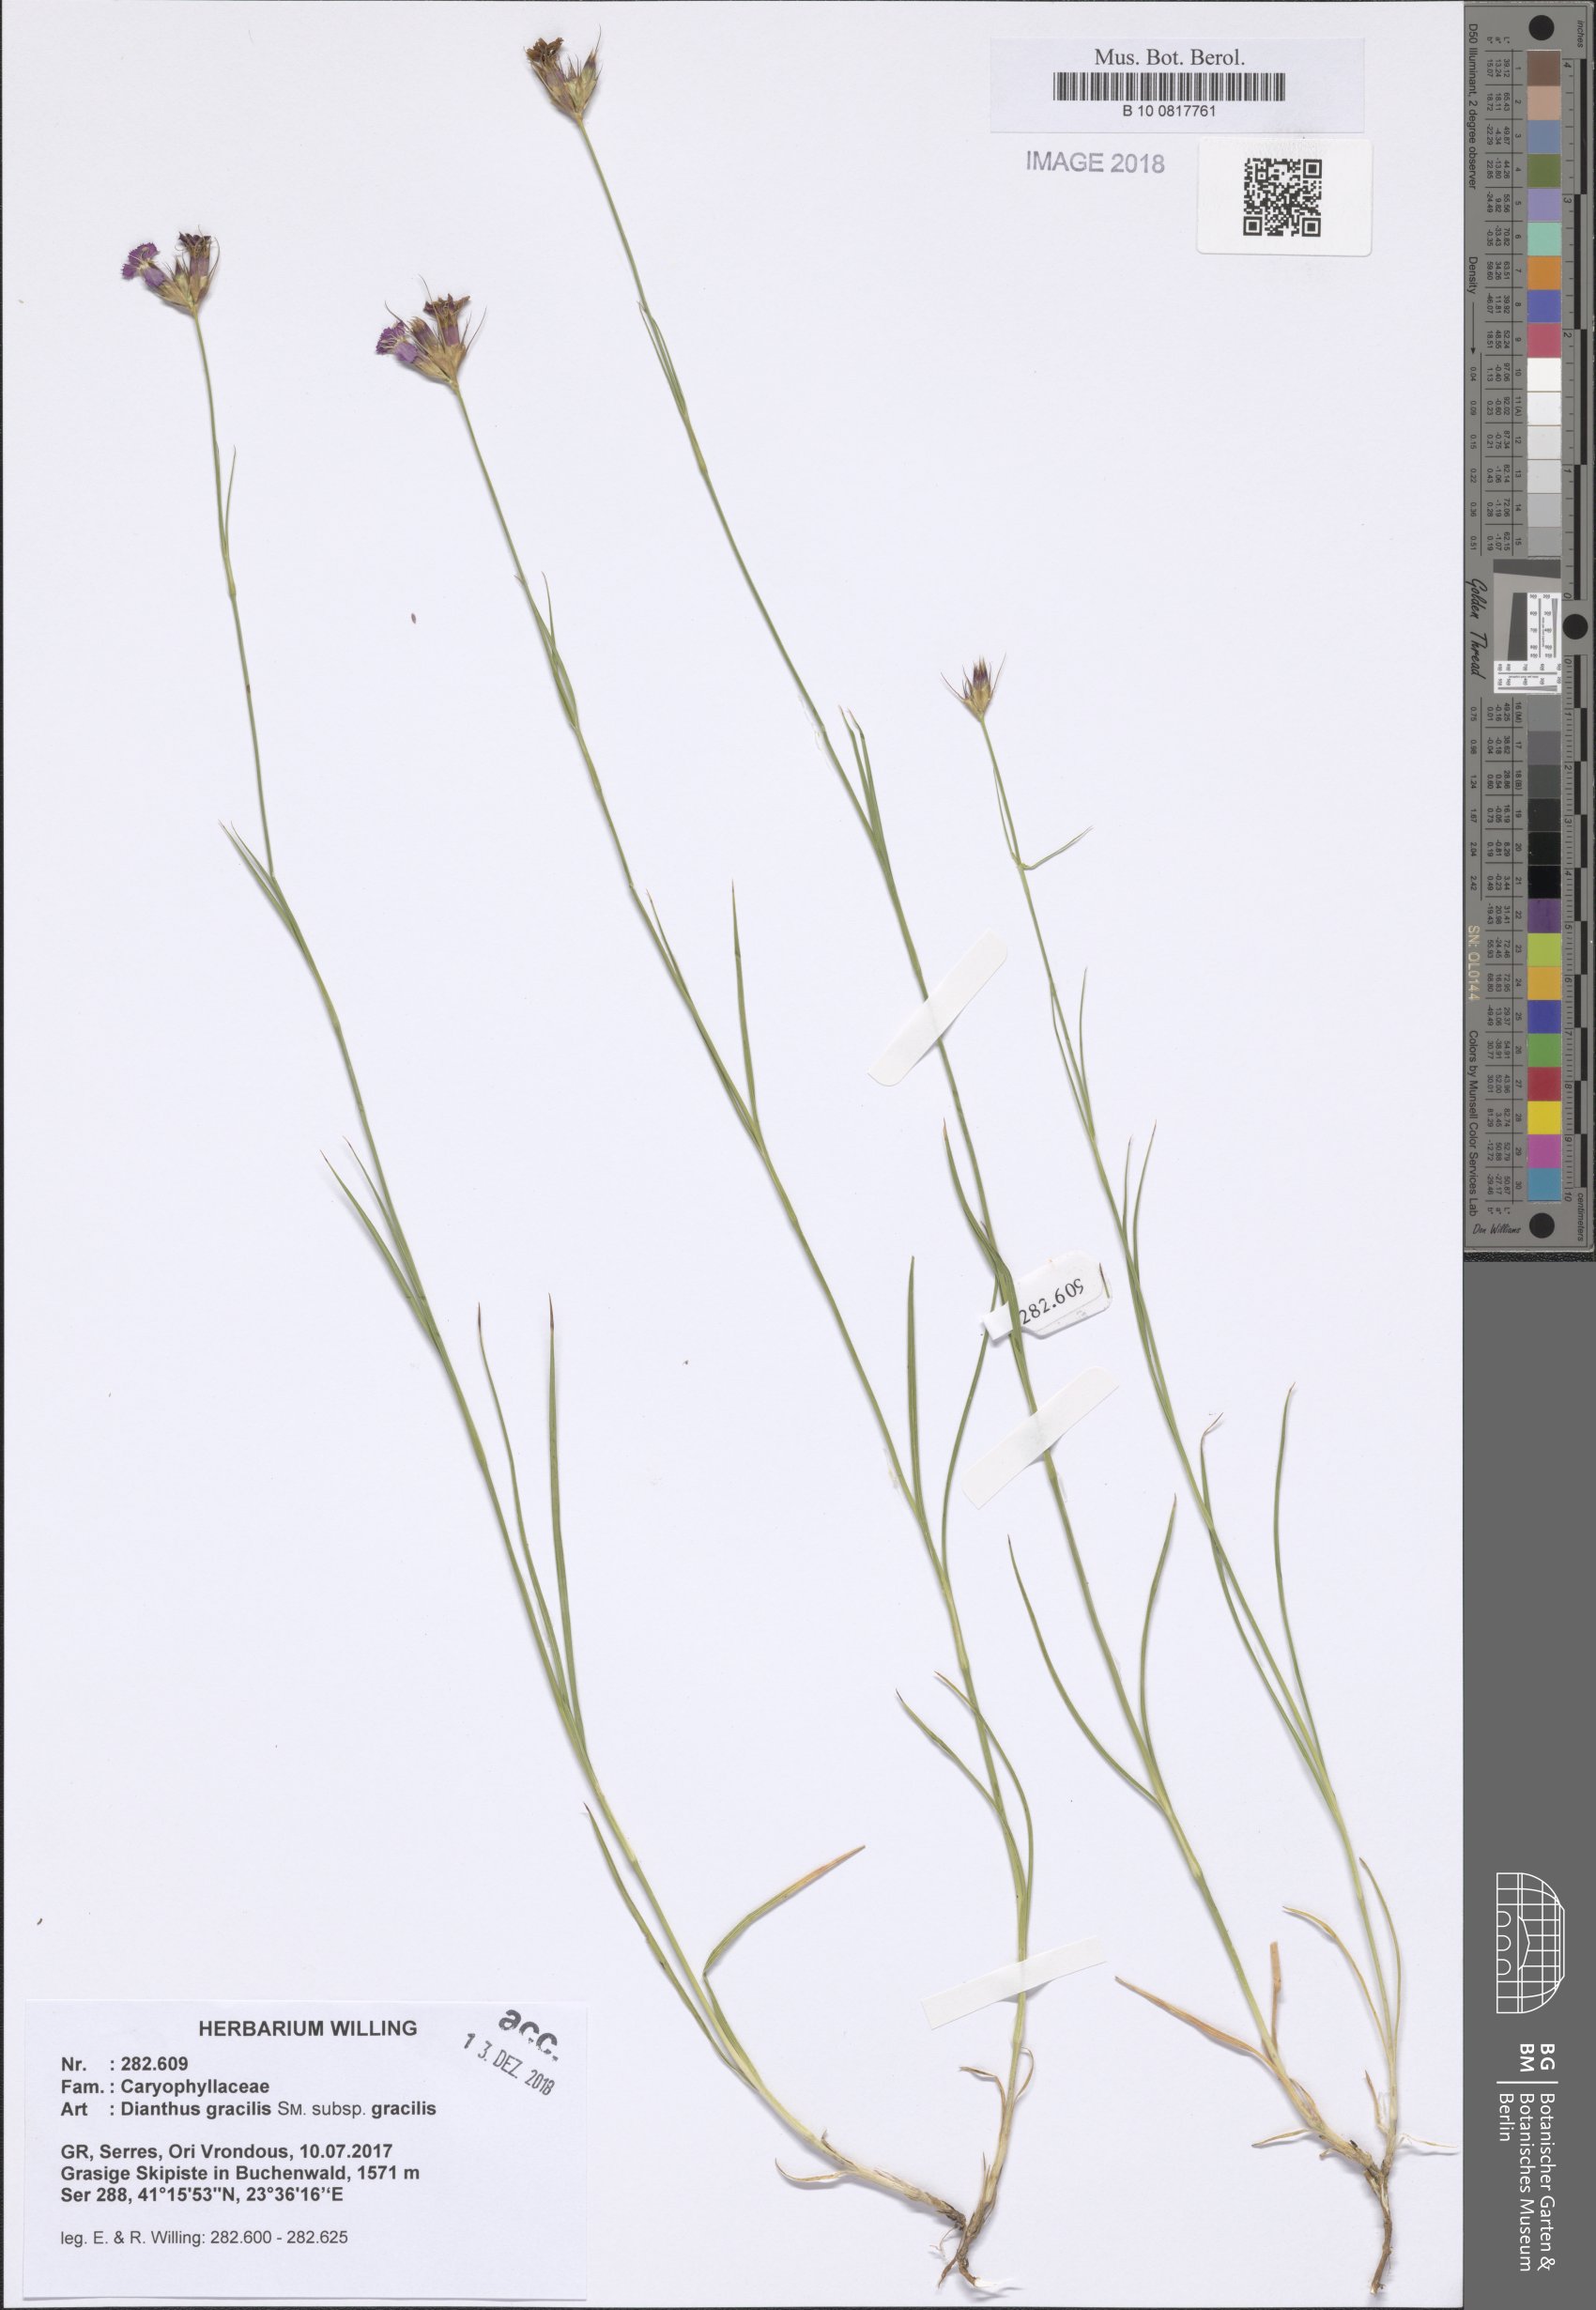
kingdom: Plantae
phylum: Tracheophyta
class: Magnoliopsida
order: Caryophyllales
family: Caryophyllaceae
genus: Dianthus
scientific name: Dianthus gracilis
